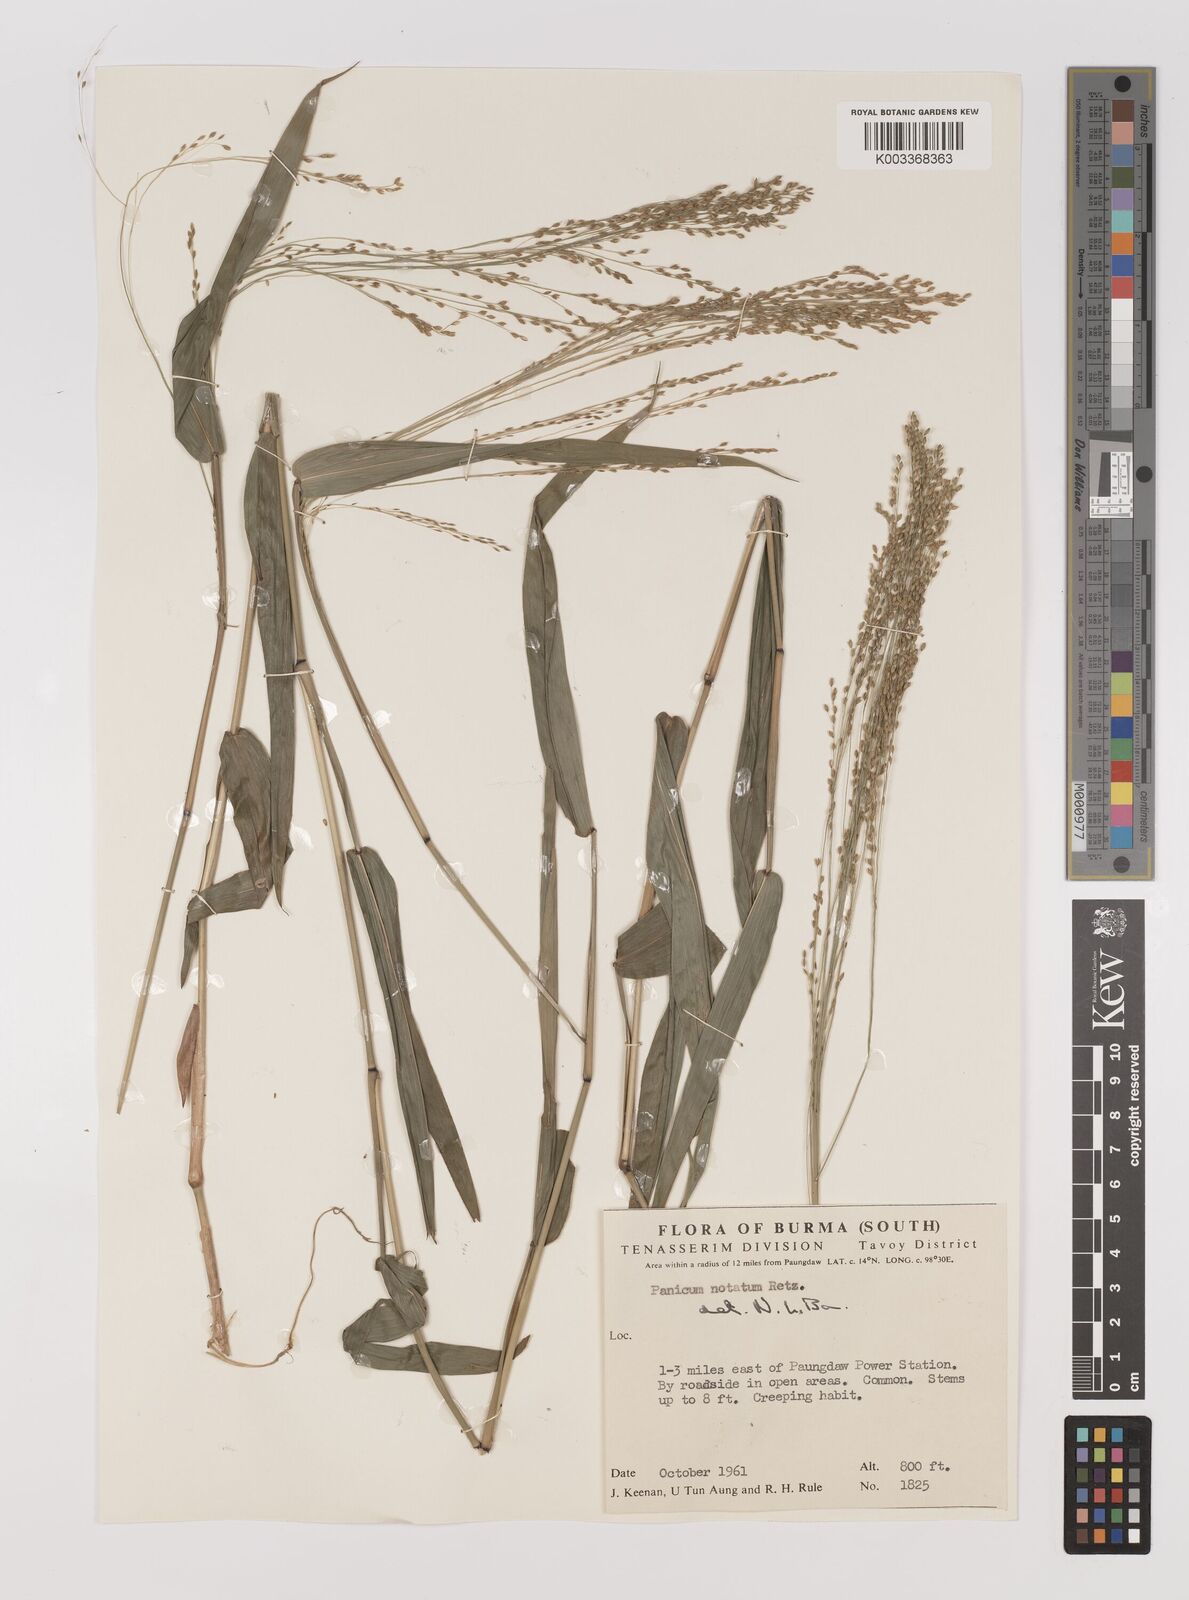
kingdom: Plantae
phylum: Tracheophyta
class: Liliopsida
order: Poales
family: Poaceae
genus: Panicum
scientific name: Panicum notatum
